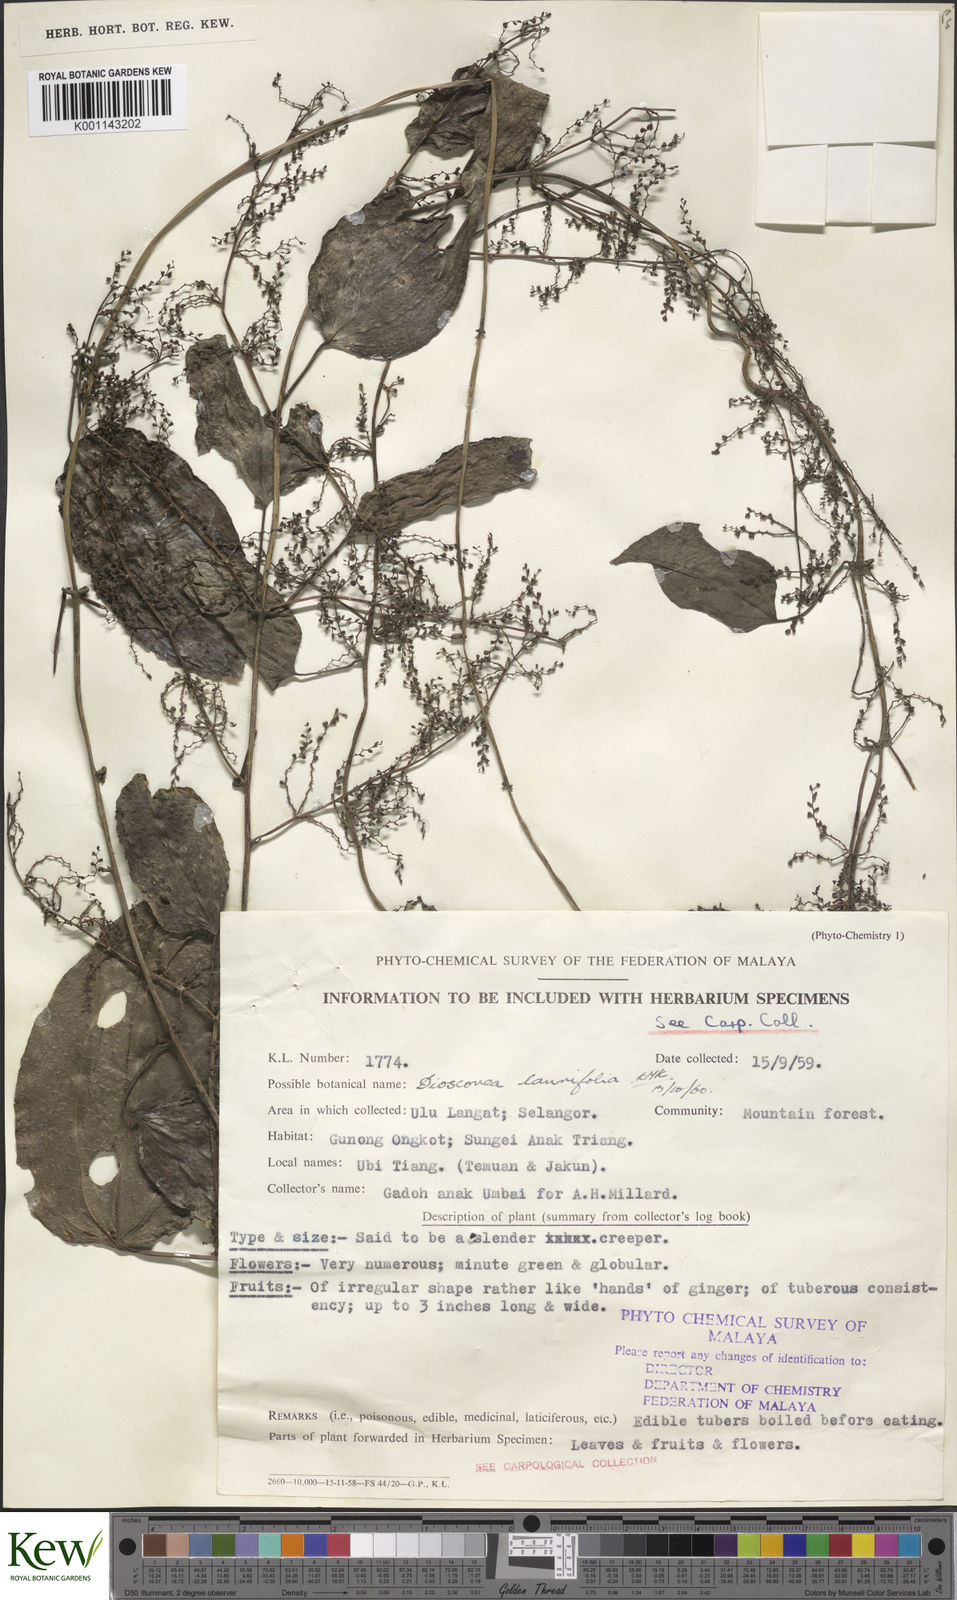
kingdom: Plantae
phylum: Tracheophyta
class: Liliopsida
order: Dioscoreales
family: Dioscoreaceae
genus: Dioscorea
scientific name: Dioscorea laurifolia
